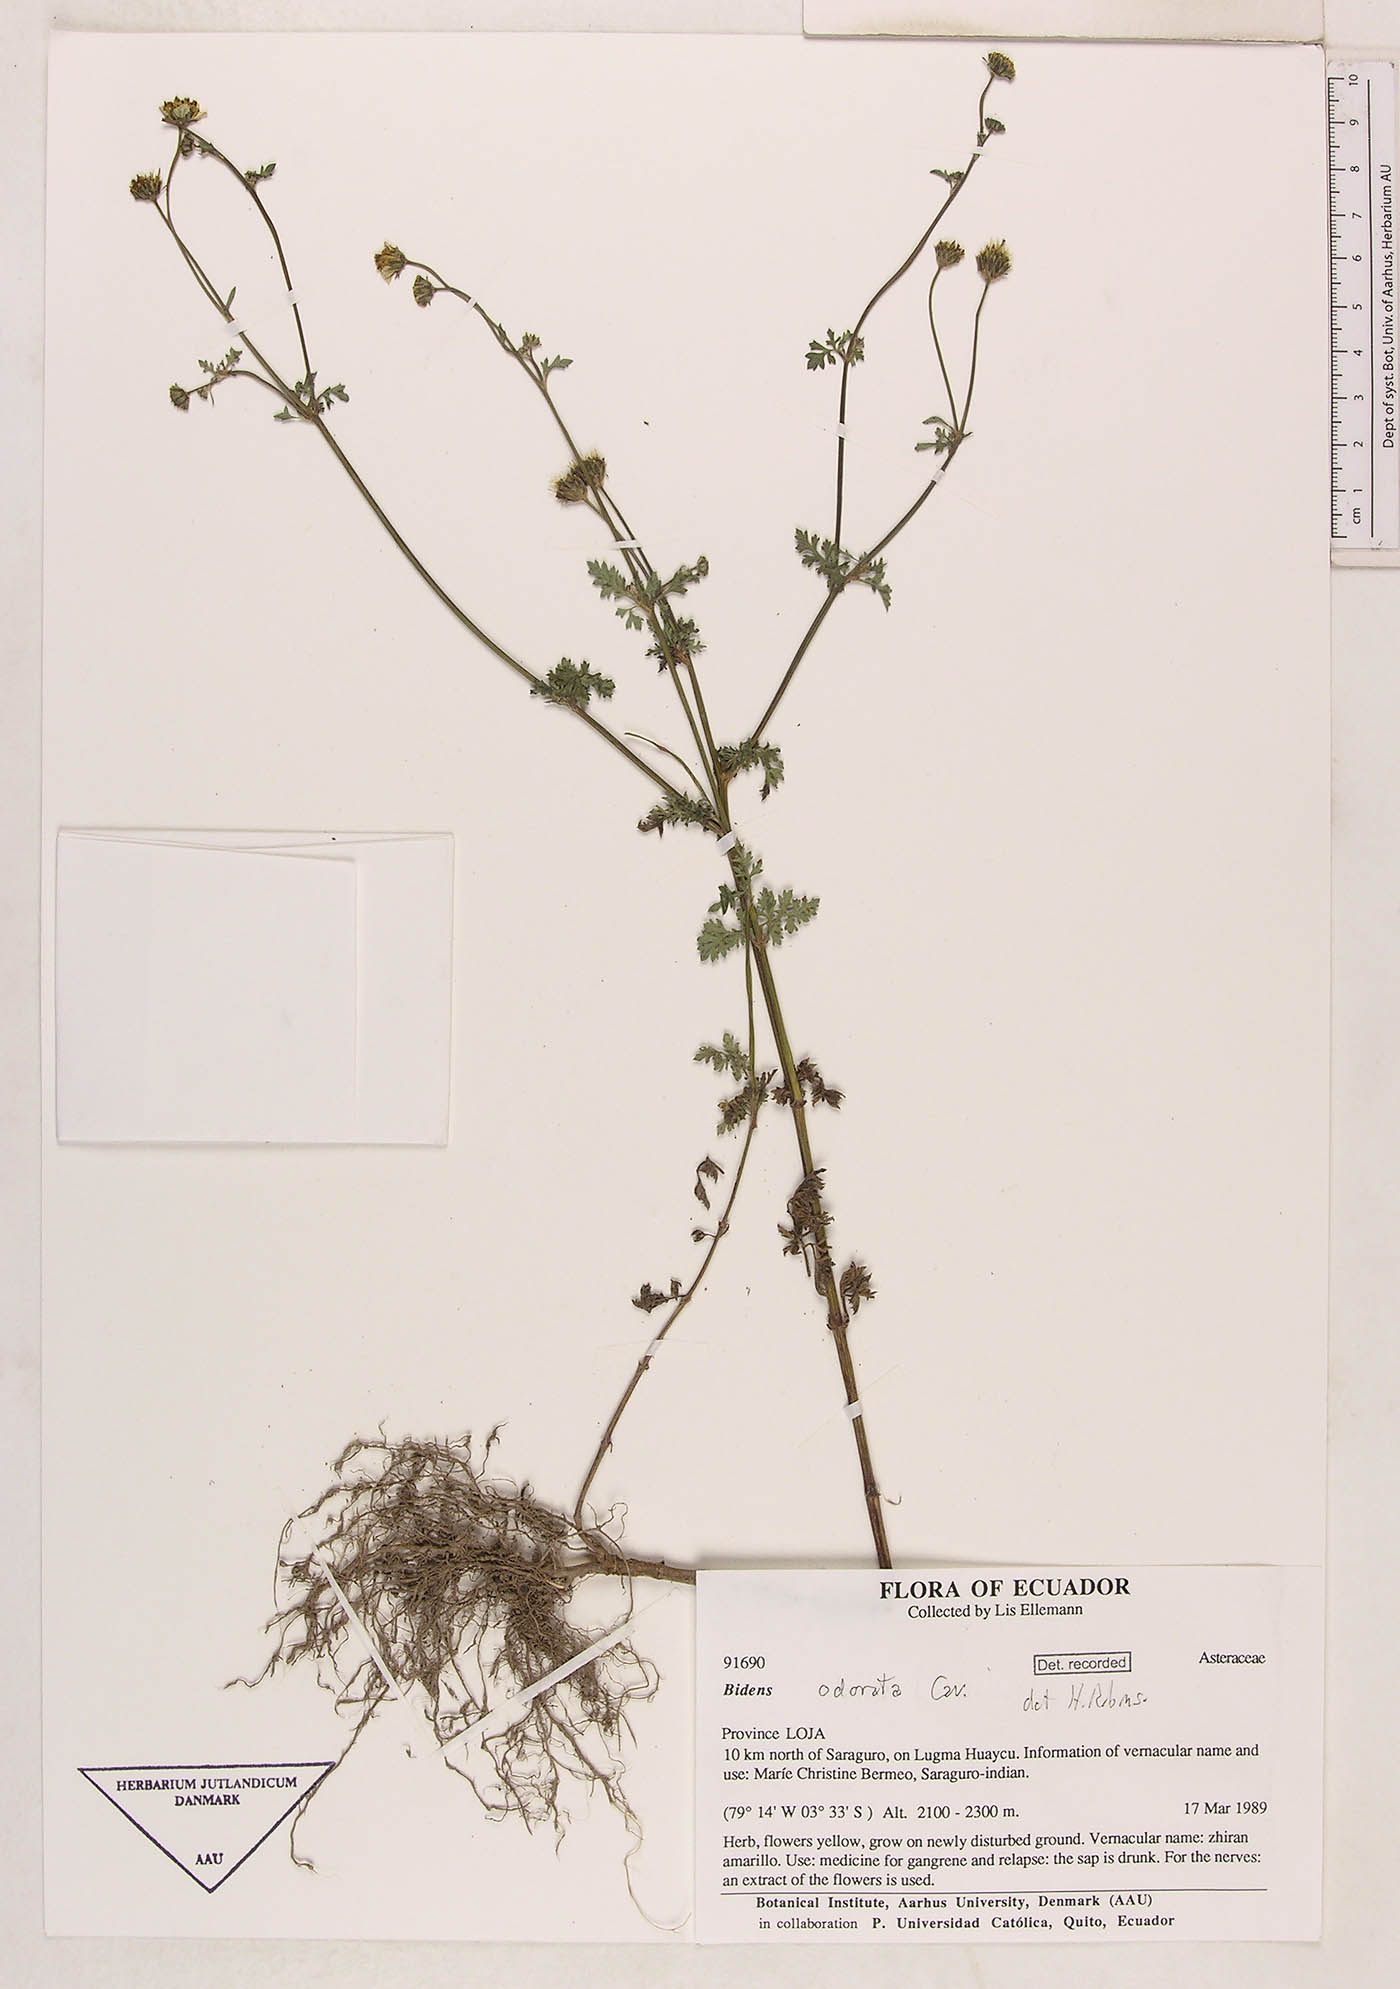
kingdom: Plantae
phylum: Tracheophyta
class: Magnoliopsida
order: Asterales
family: Asteraceae
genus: Bidens
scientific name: Bidens pilosa
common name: Black-jack
